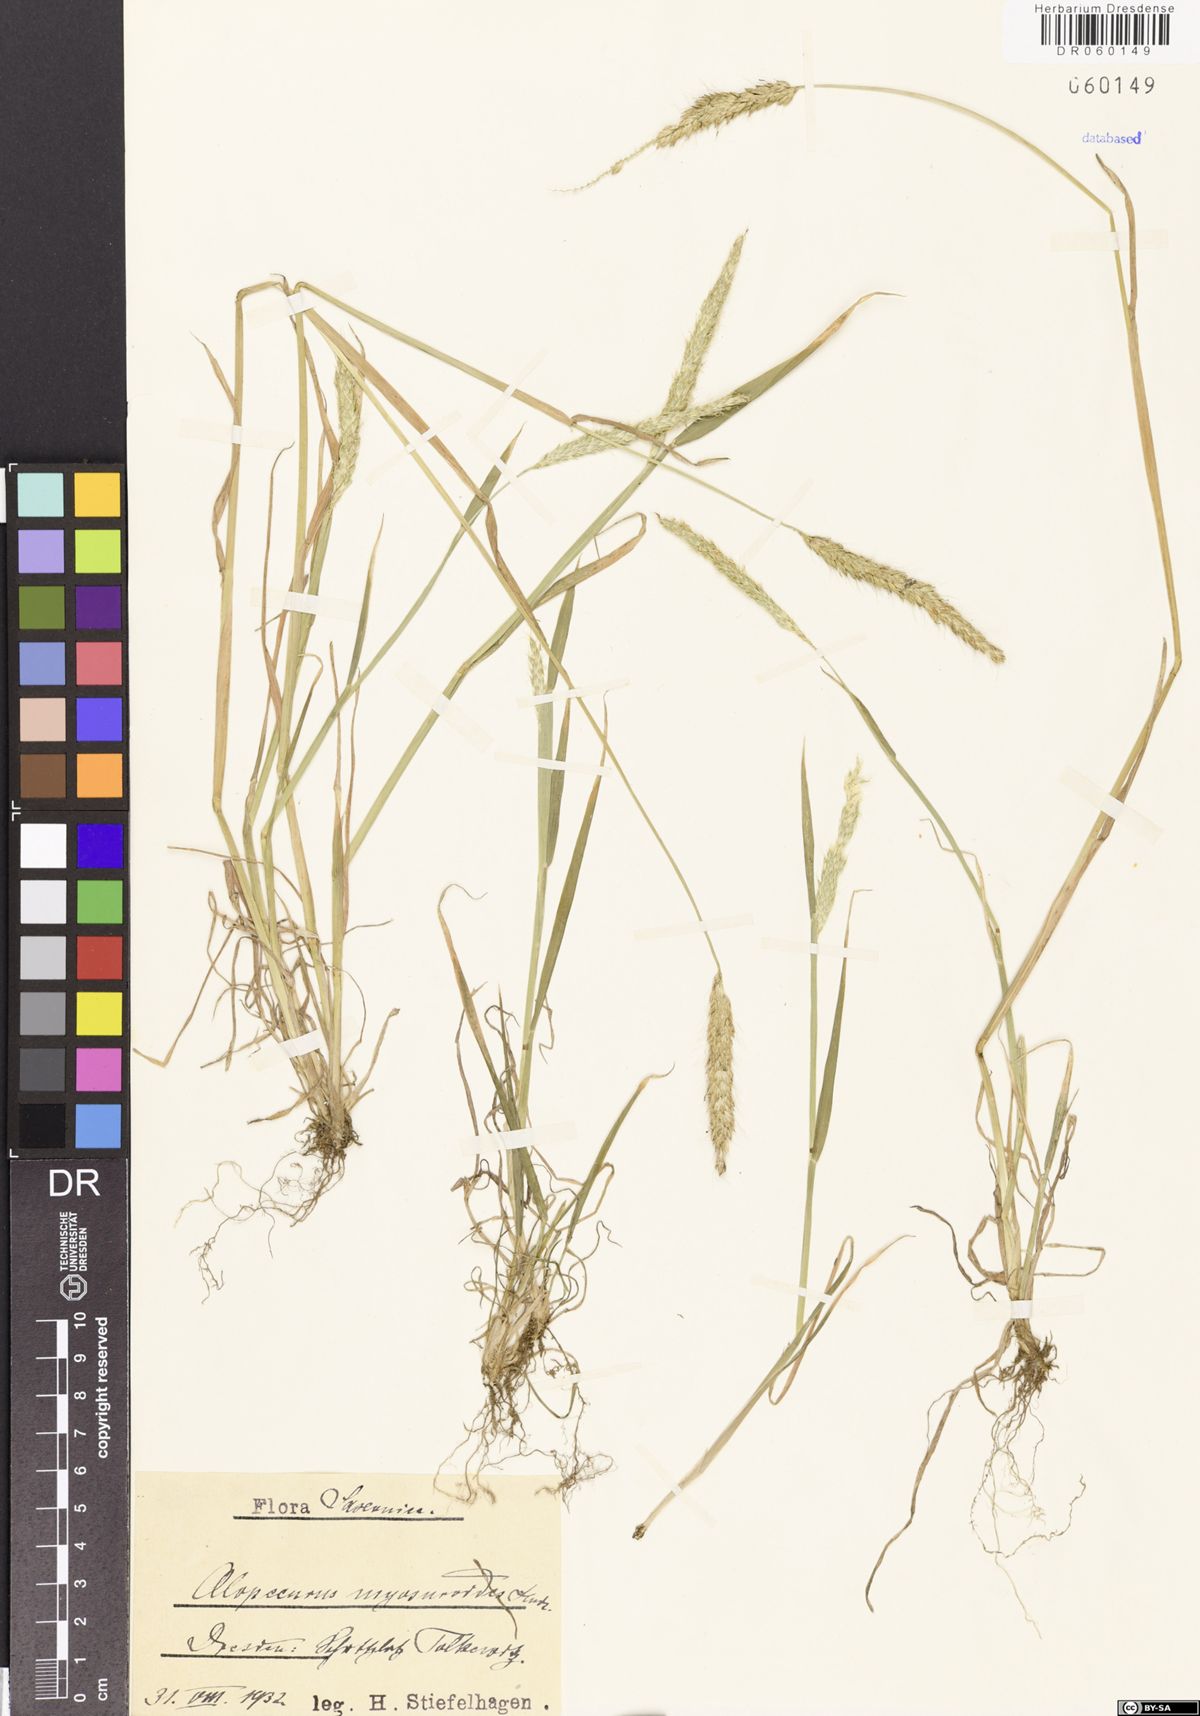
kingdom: Plantae
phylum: Tracheophyta
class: Liliopsida
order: Poales
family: Poaceae
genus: Alopecurus
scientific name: Alopecurus myosuroides
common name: Black-grass
